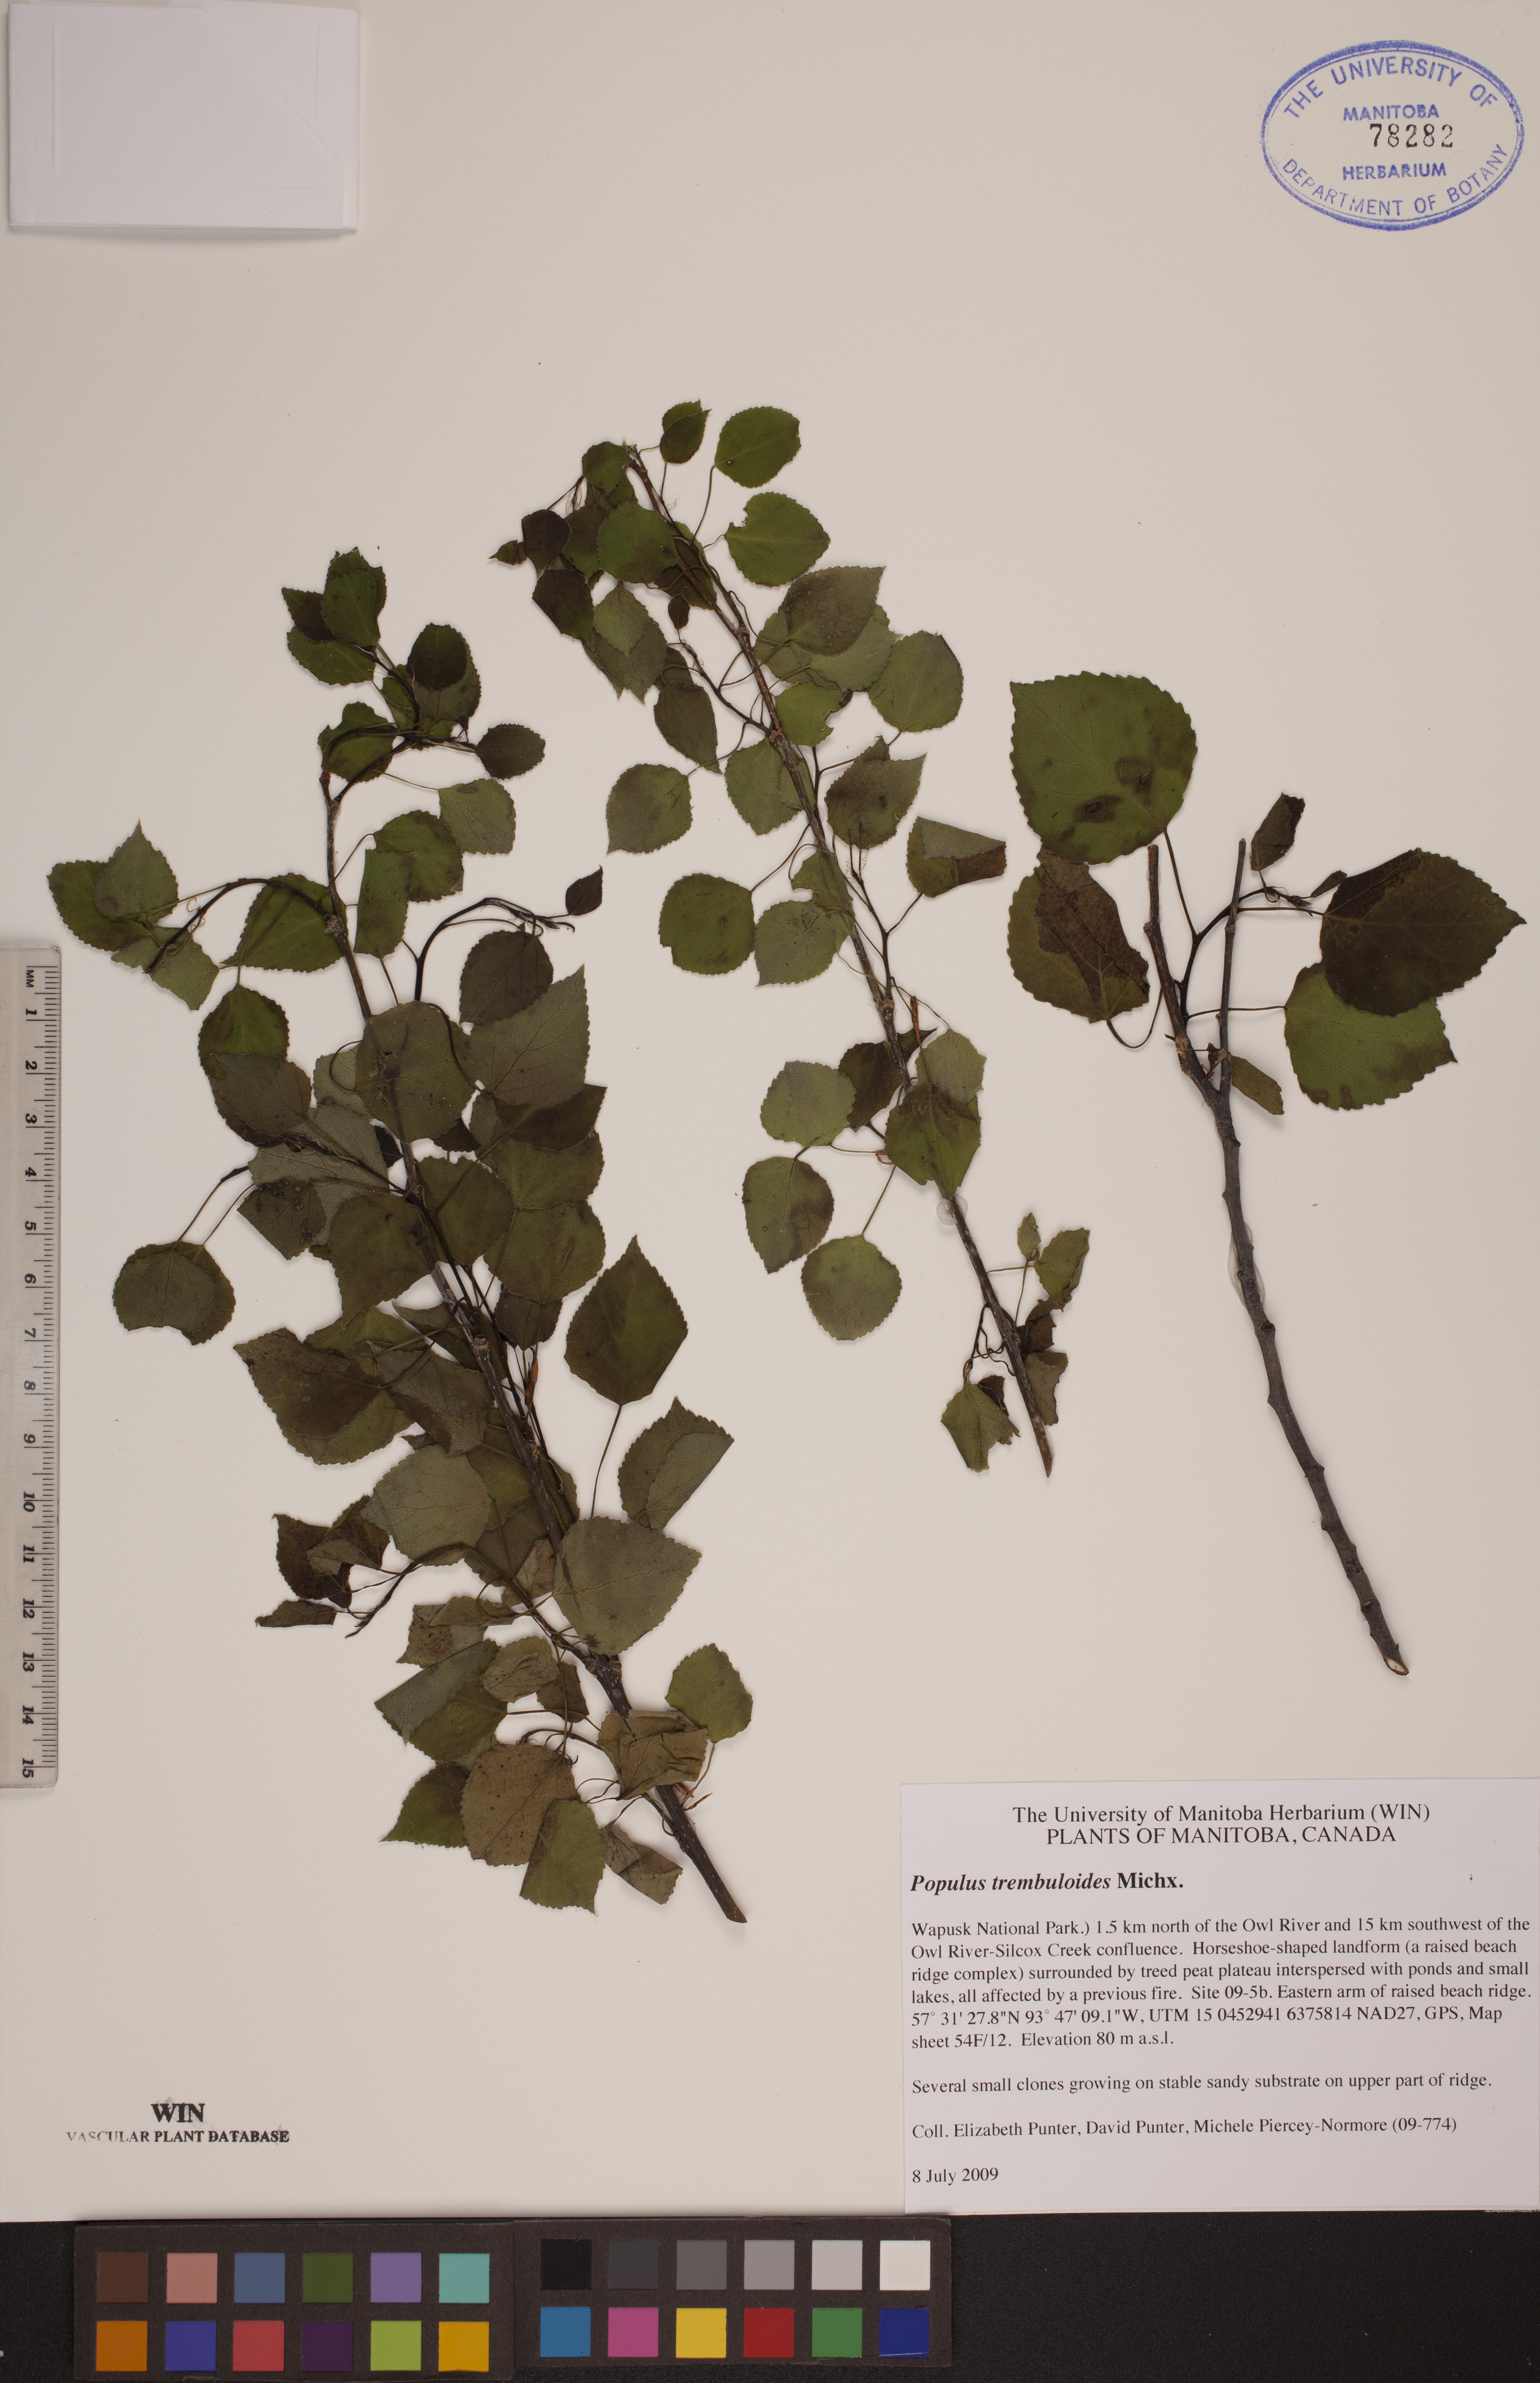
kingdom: Plantae
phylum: Tracheophyta
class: Magnoliopsida
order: Malpighiales
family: Salicaceae
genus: Populus
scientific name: Populus tremuloides
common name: Quaking aspen
